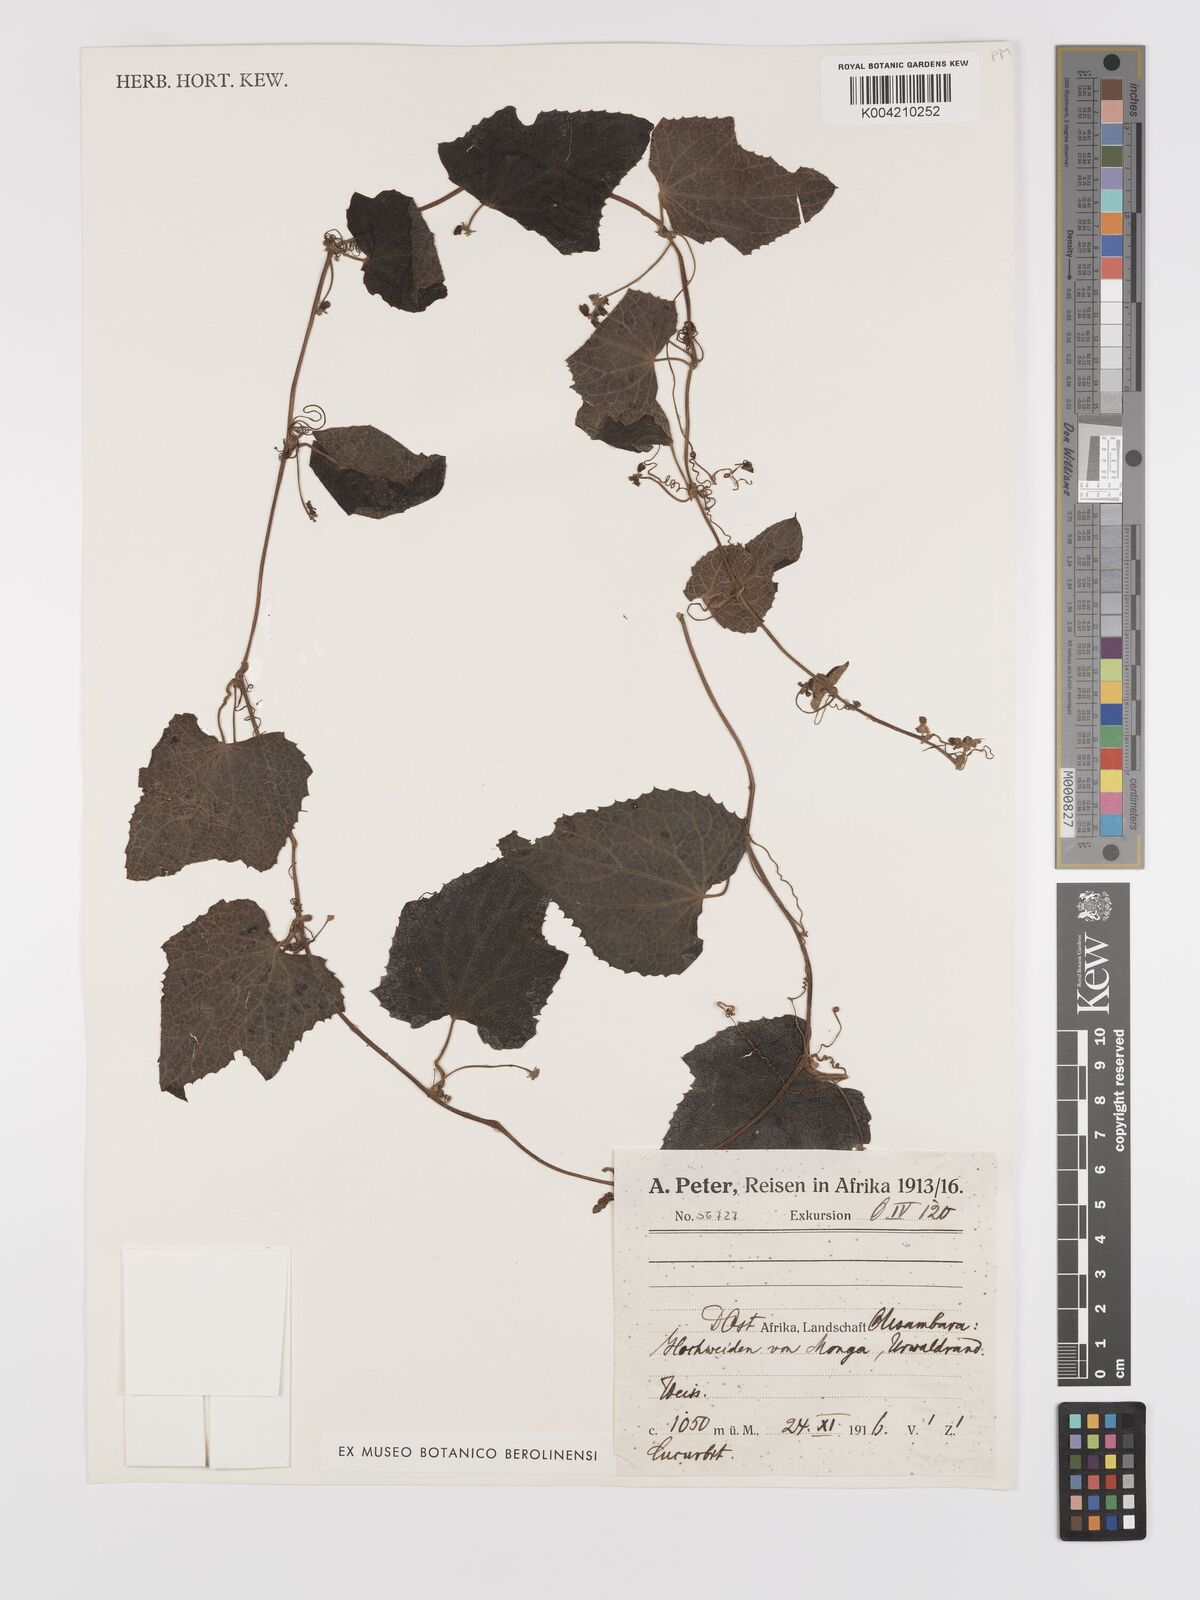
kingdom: Plantae
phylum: Tracheophyta
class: Magnoliopsida
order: Cucurbitales
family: Cucurbitaceae
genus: Zehneria
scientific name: Zehneria scabra
